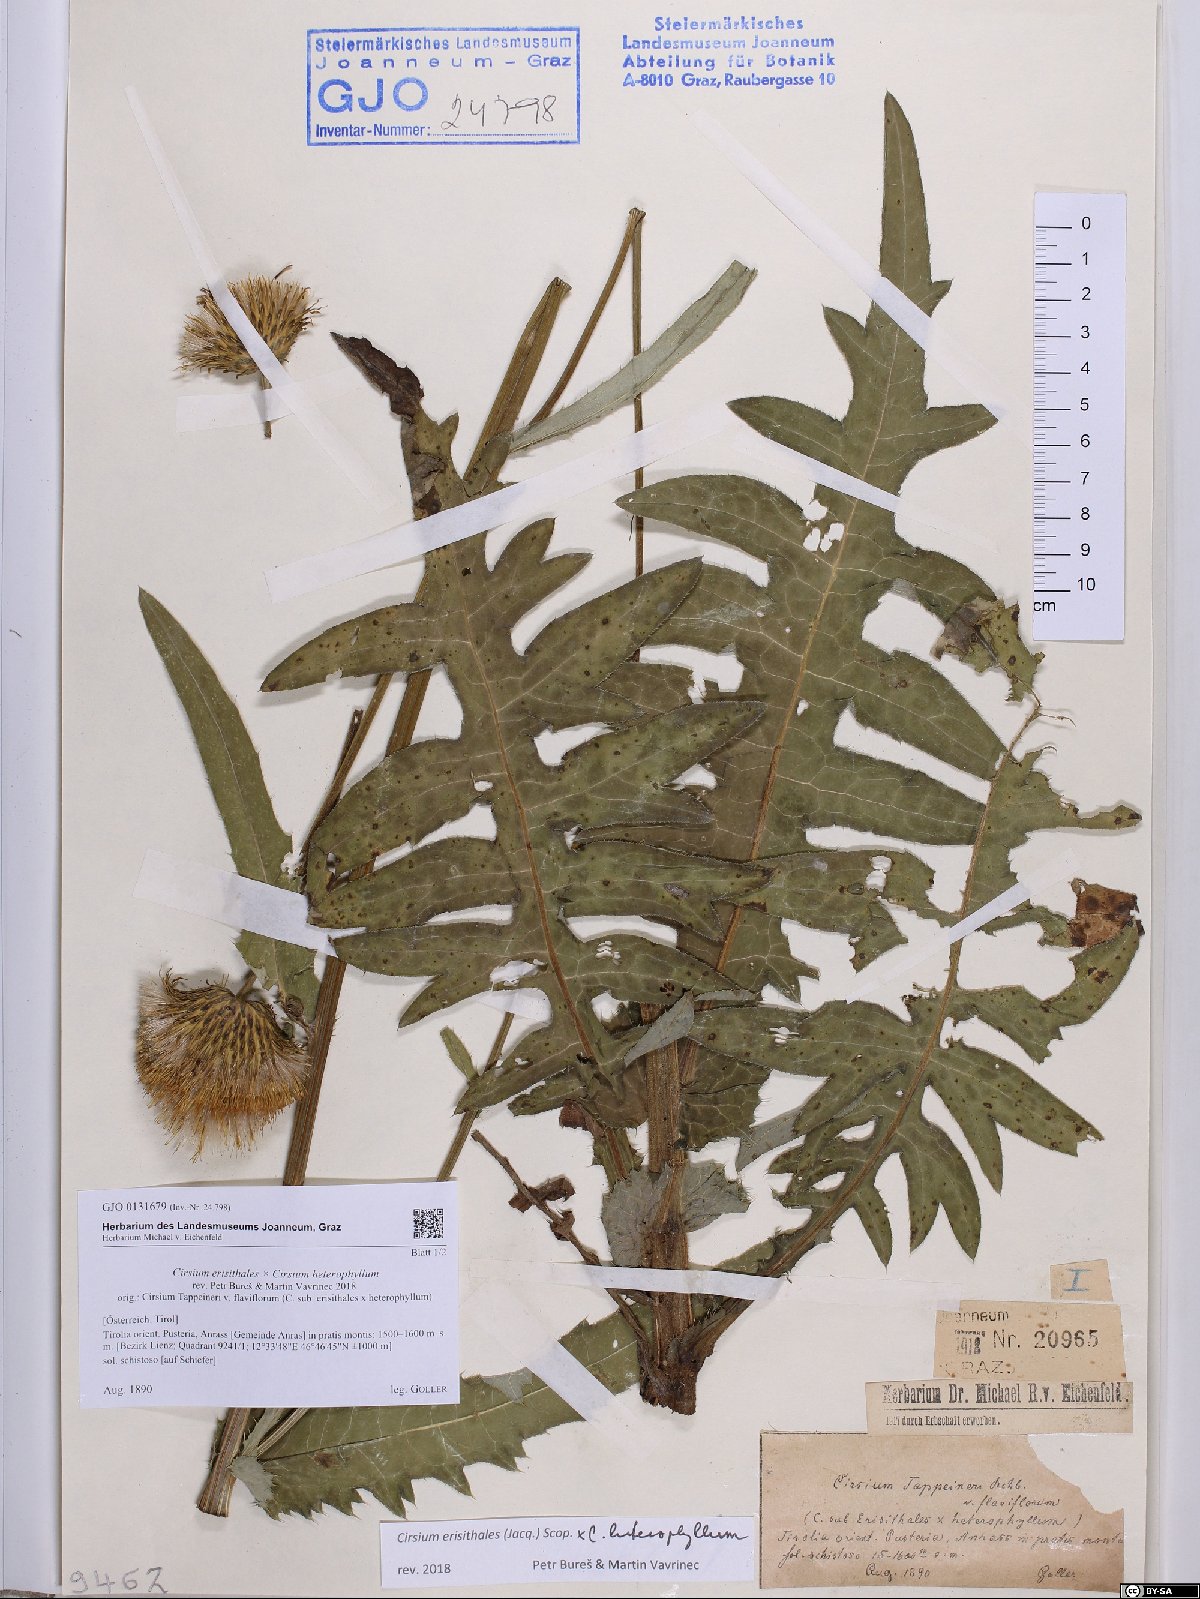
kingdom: Plantae
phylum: Tracheophyta
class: Magnoliopsida
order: Asterales
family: Asteraceae
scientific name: Asteraceae
